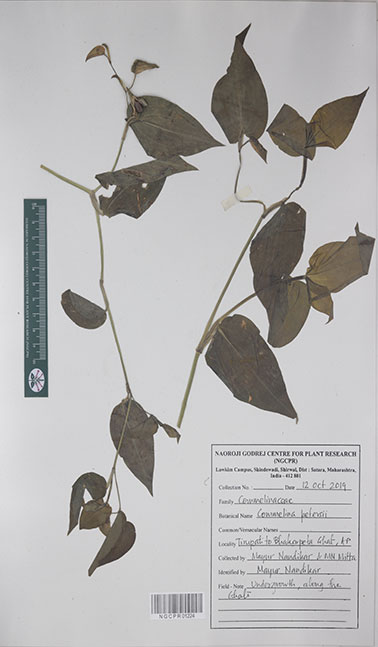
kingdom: Plantae
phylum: Tracheophyta
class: Liliopsida
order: Commelinales
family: Commelinaceae
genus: Commelina
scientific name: Commelina petersii
